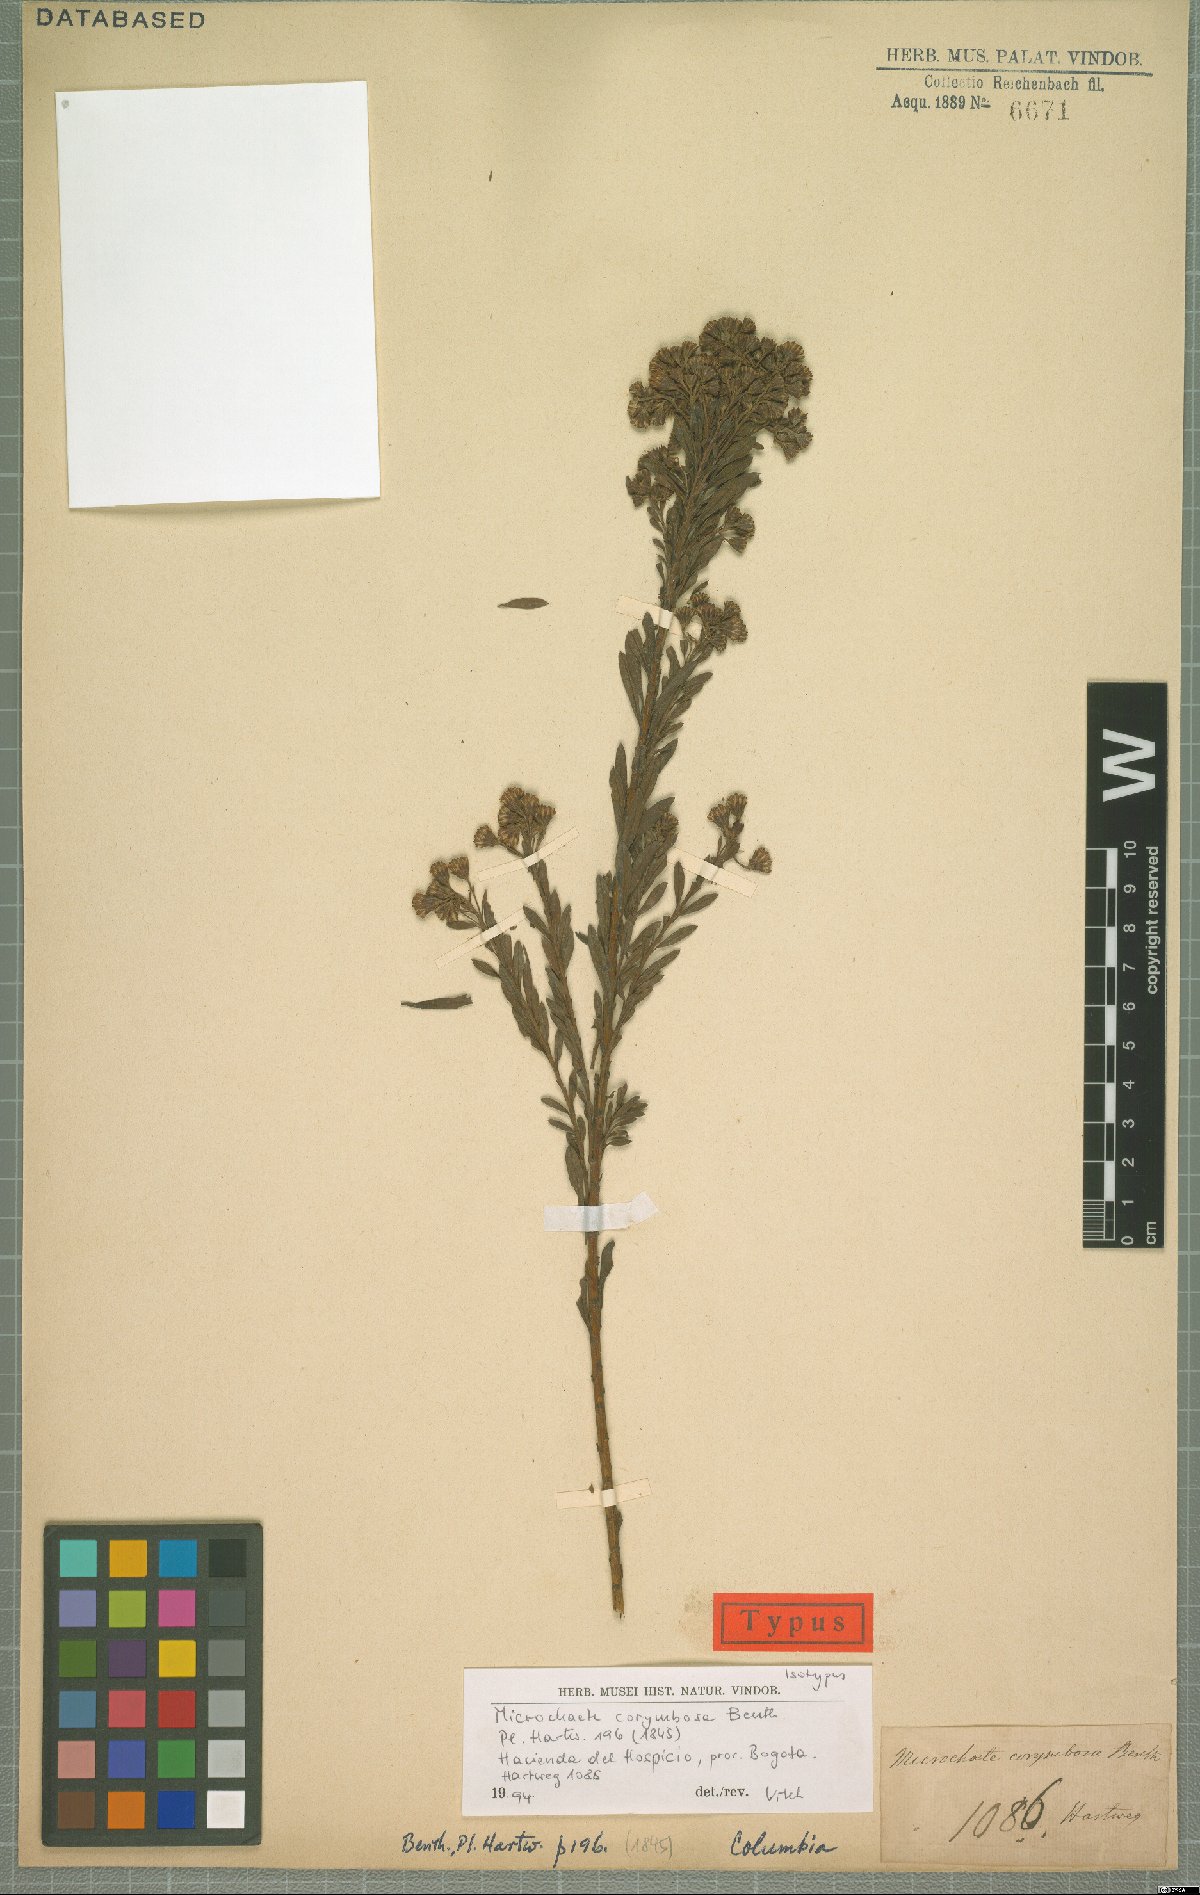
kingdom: Plantae
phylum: Tracheophyta
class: Magnoliopsida
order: Asterales
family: Asteraceae
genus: Monticalia
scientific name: Monticalia corymbosa
